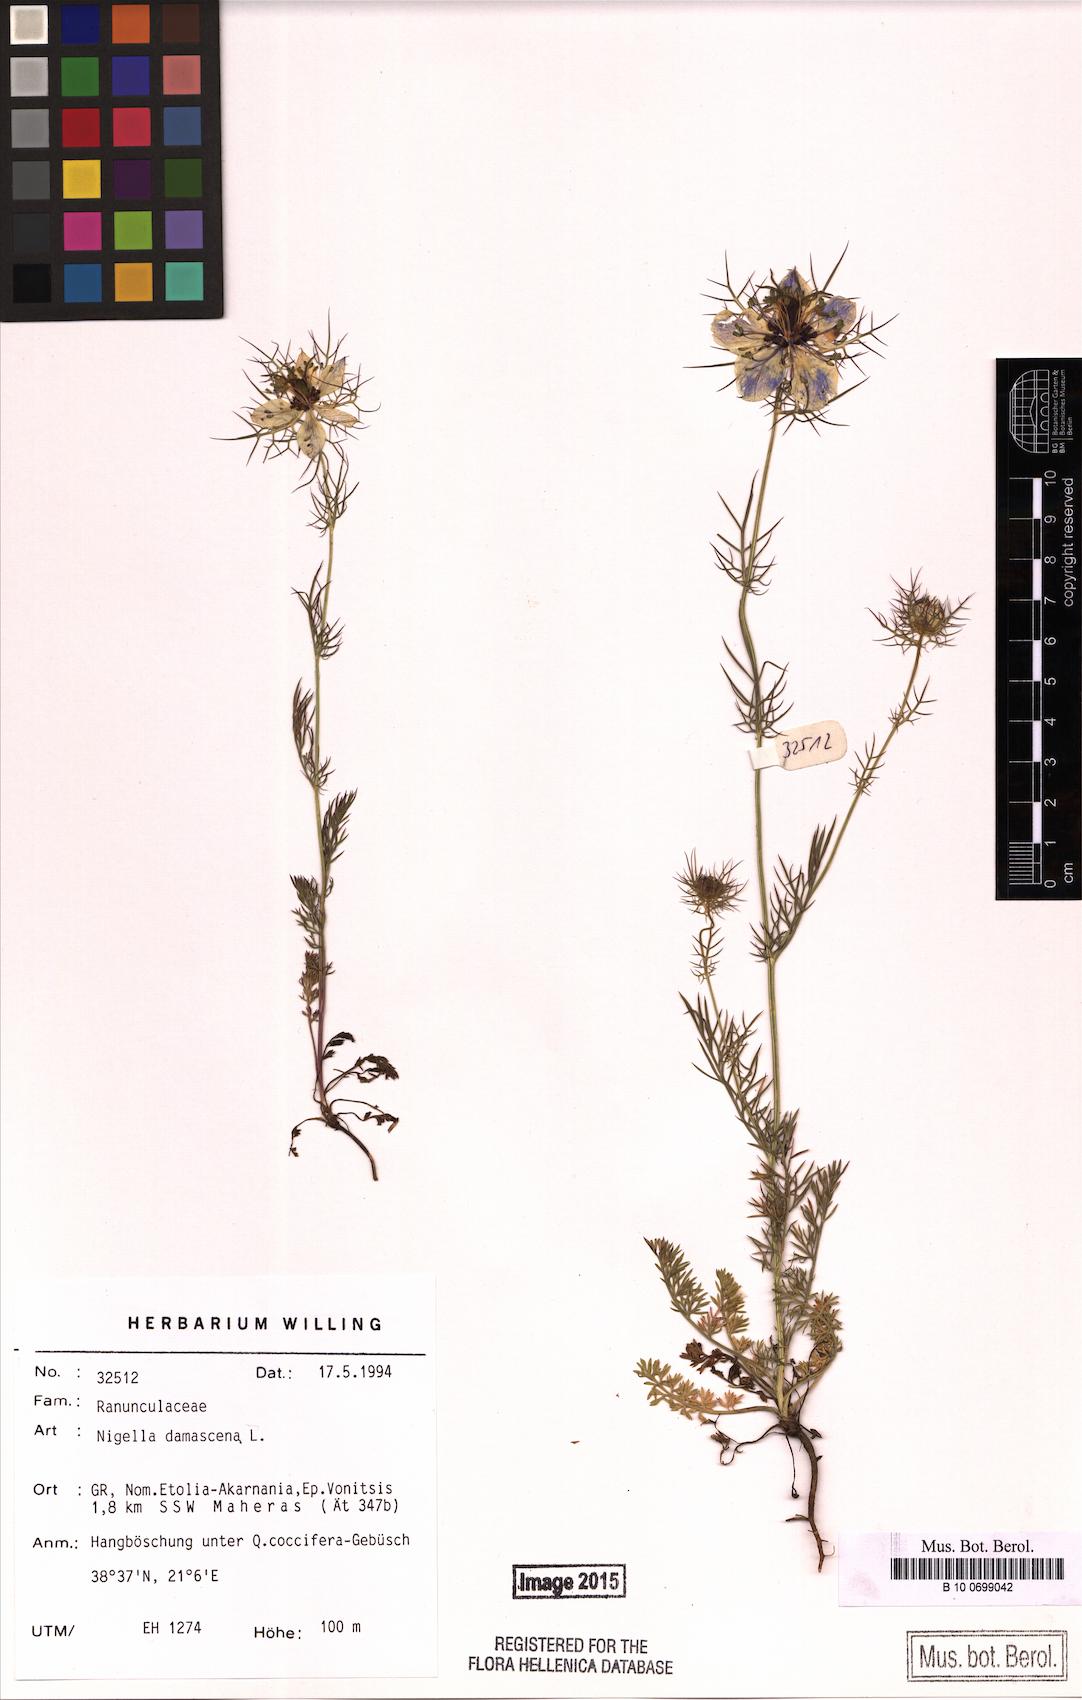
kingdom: Plantae
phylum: Tracheophyta
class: Magnoliopsida
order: Ranunculales
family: Ranunculaceae
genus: Nigella
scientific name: Nigella damascena
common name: Love-in-a-mist
